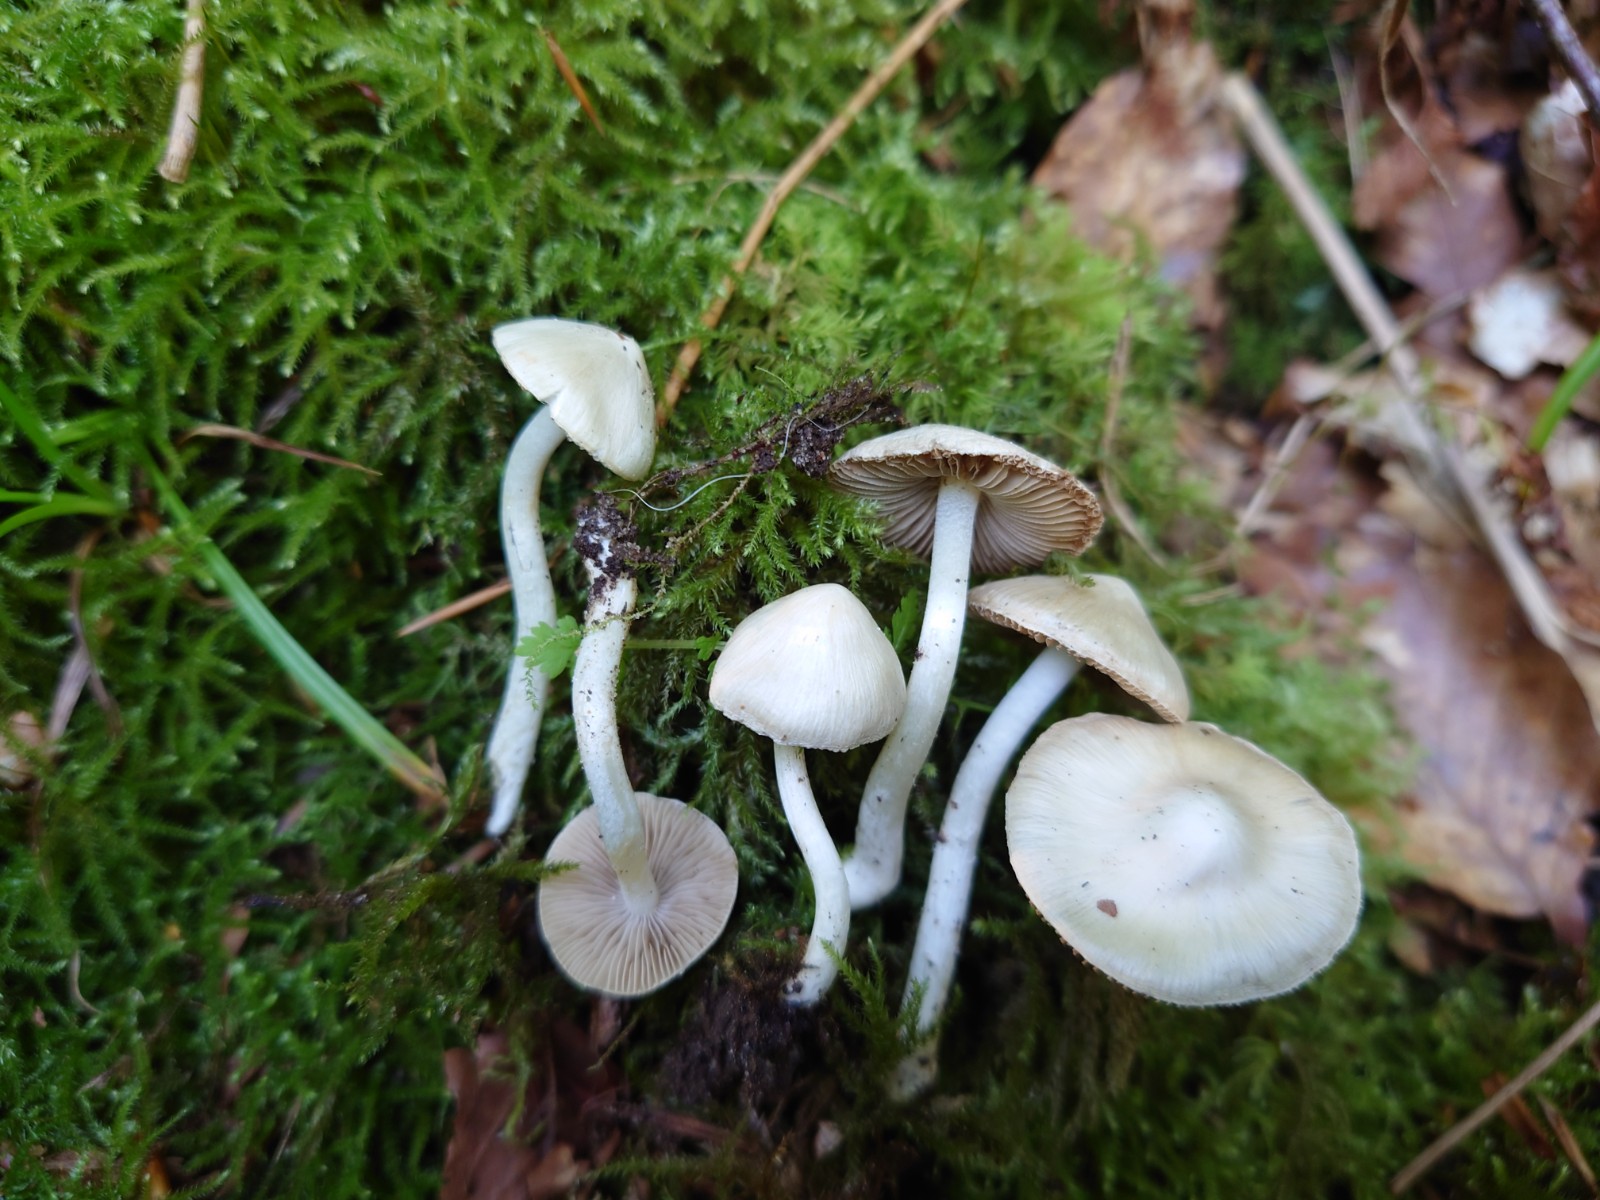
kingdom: Fungi
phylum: Basidiomycota
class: Agaricomycetes
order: Agaricales
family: Inocybaceae
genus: Inocybe
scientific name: Inocybe
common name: almindelig trævlhat
